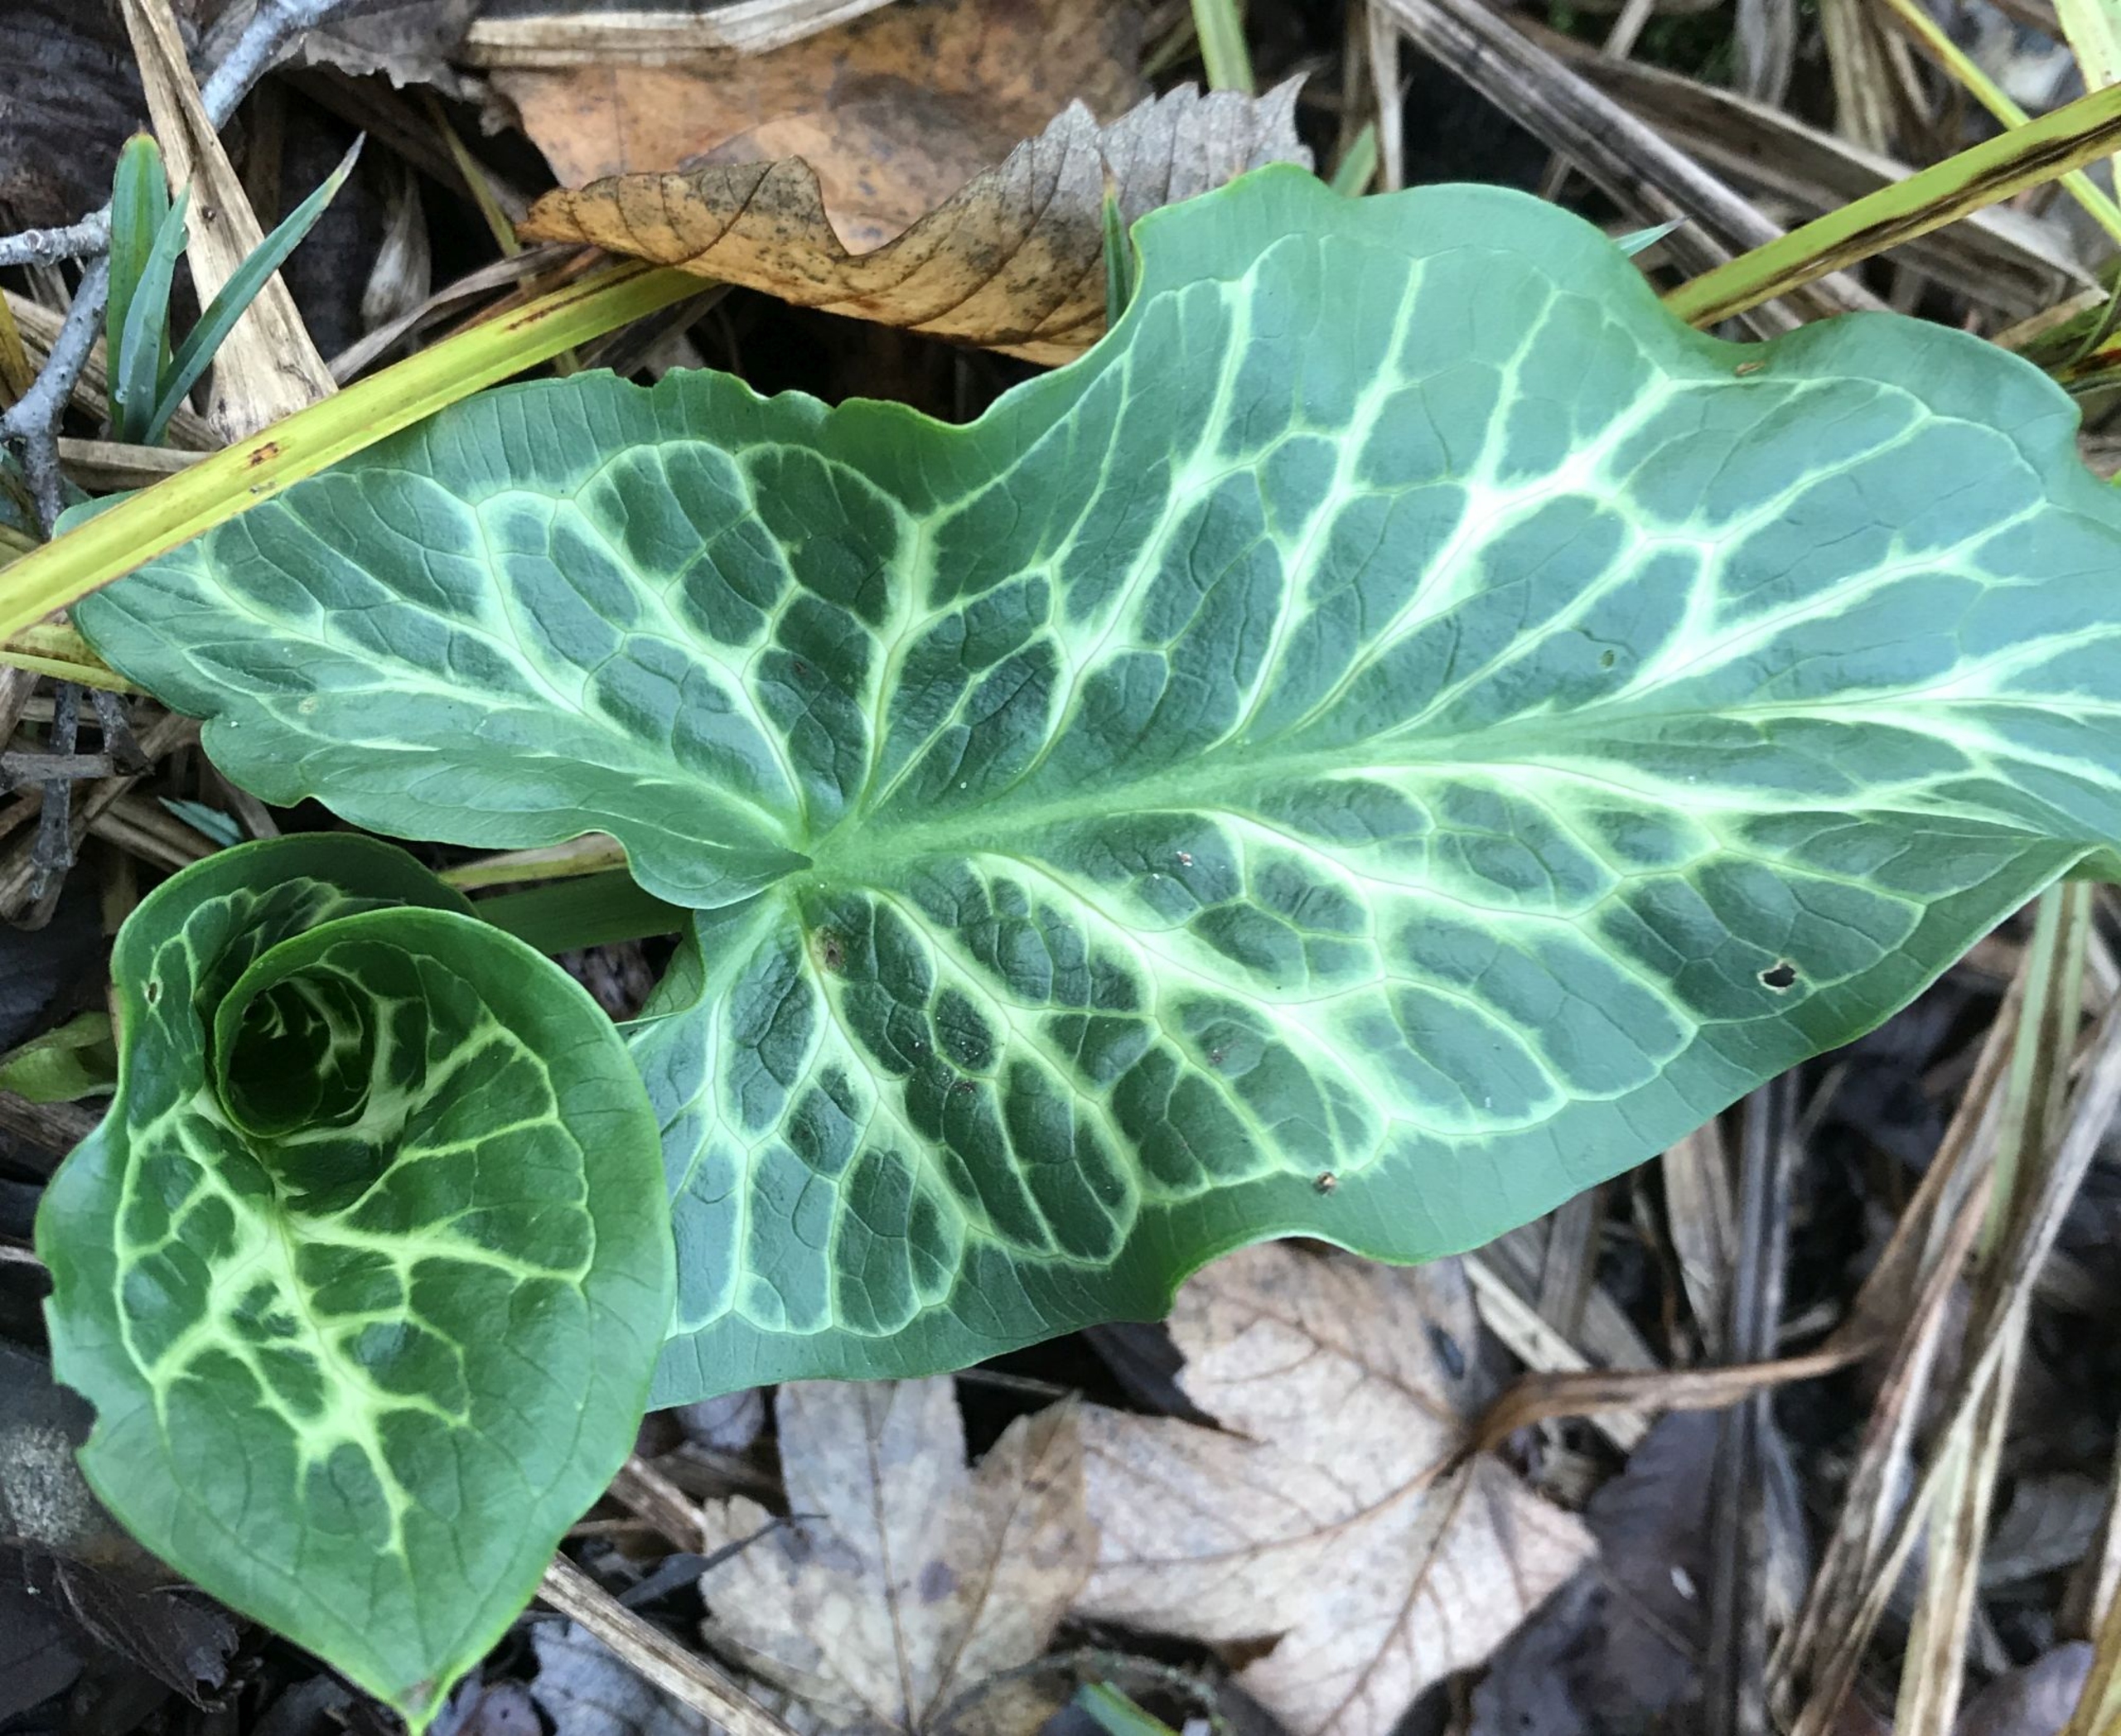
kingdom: Plantae
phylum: Tracheophyta
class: Liliopsida
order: Alismatales
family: Araceae
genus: Arum
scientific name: Arum italicum
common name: Italiensk arum
